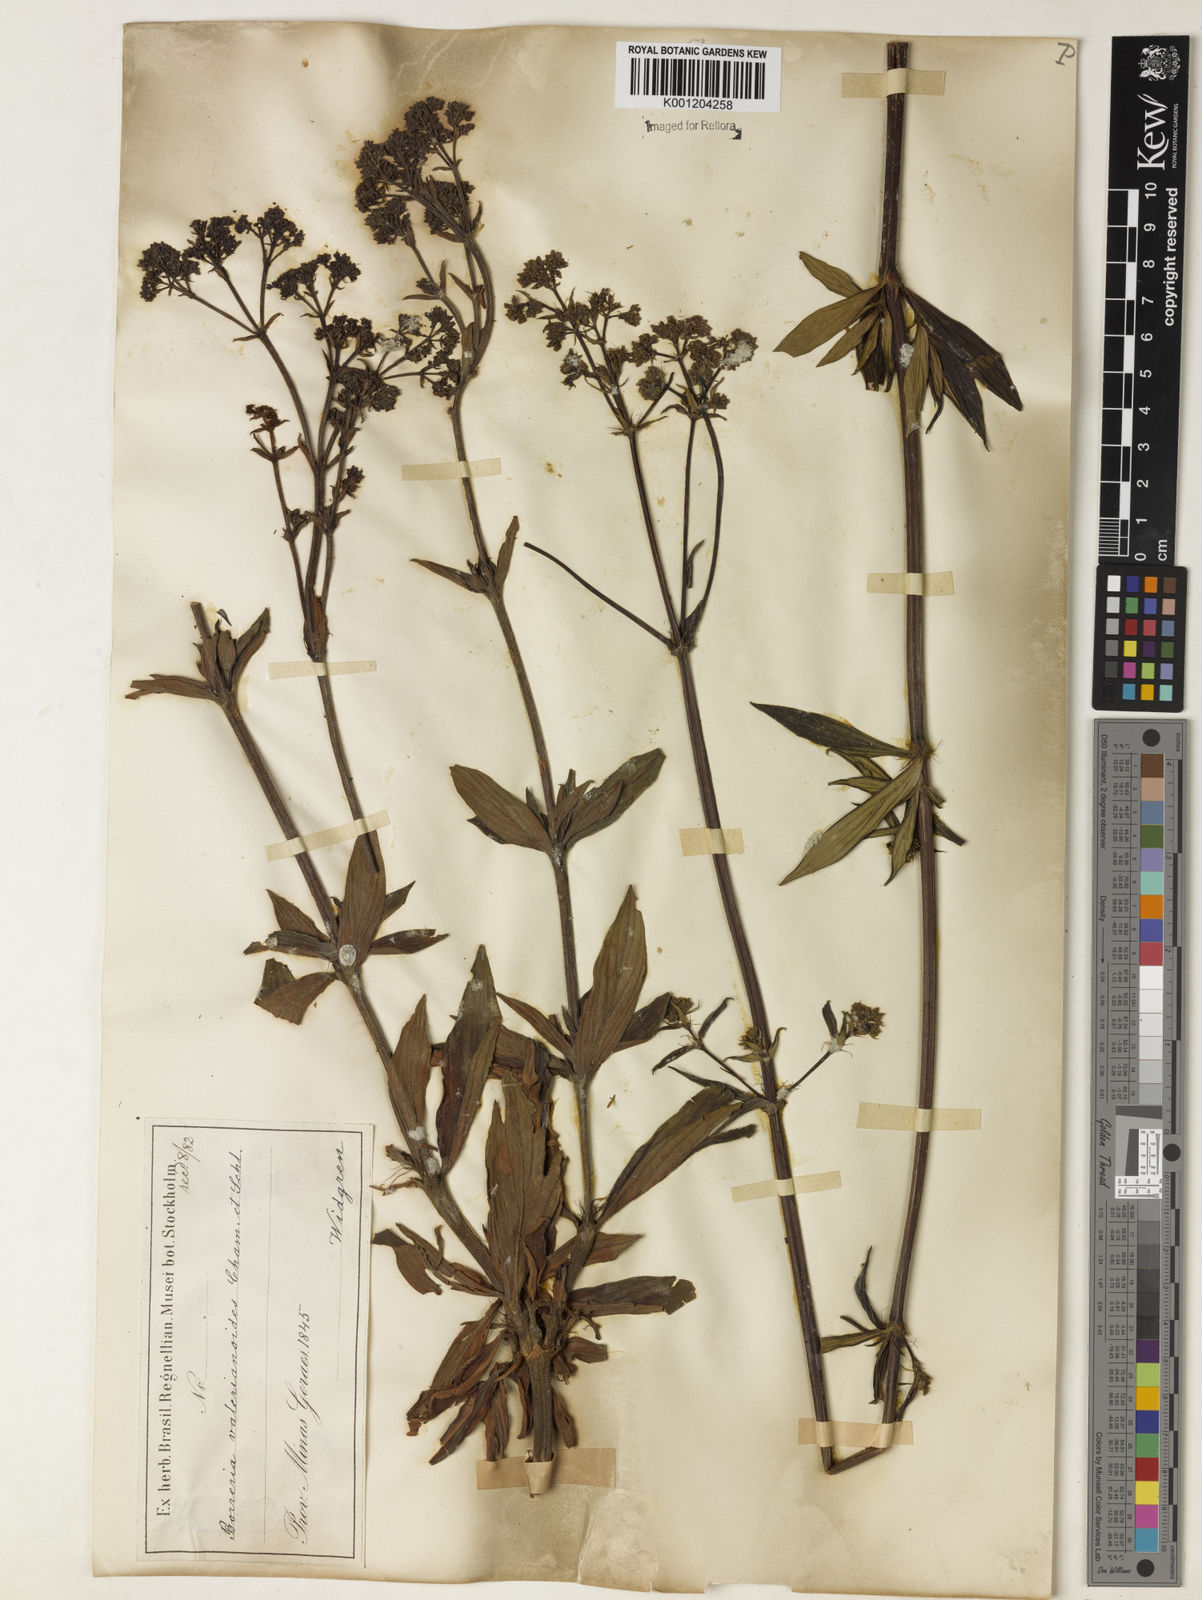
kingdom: Plantae
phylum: Tracheophyta
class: Magnoliopsida
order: Gentianales
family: Rubiaceae
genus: Galianthe
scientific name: Galianthe valerianoides
